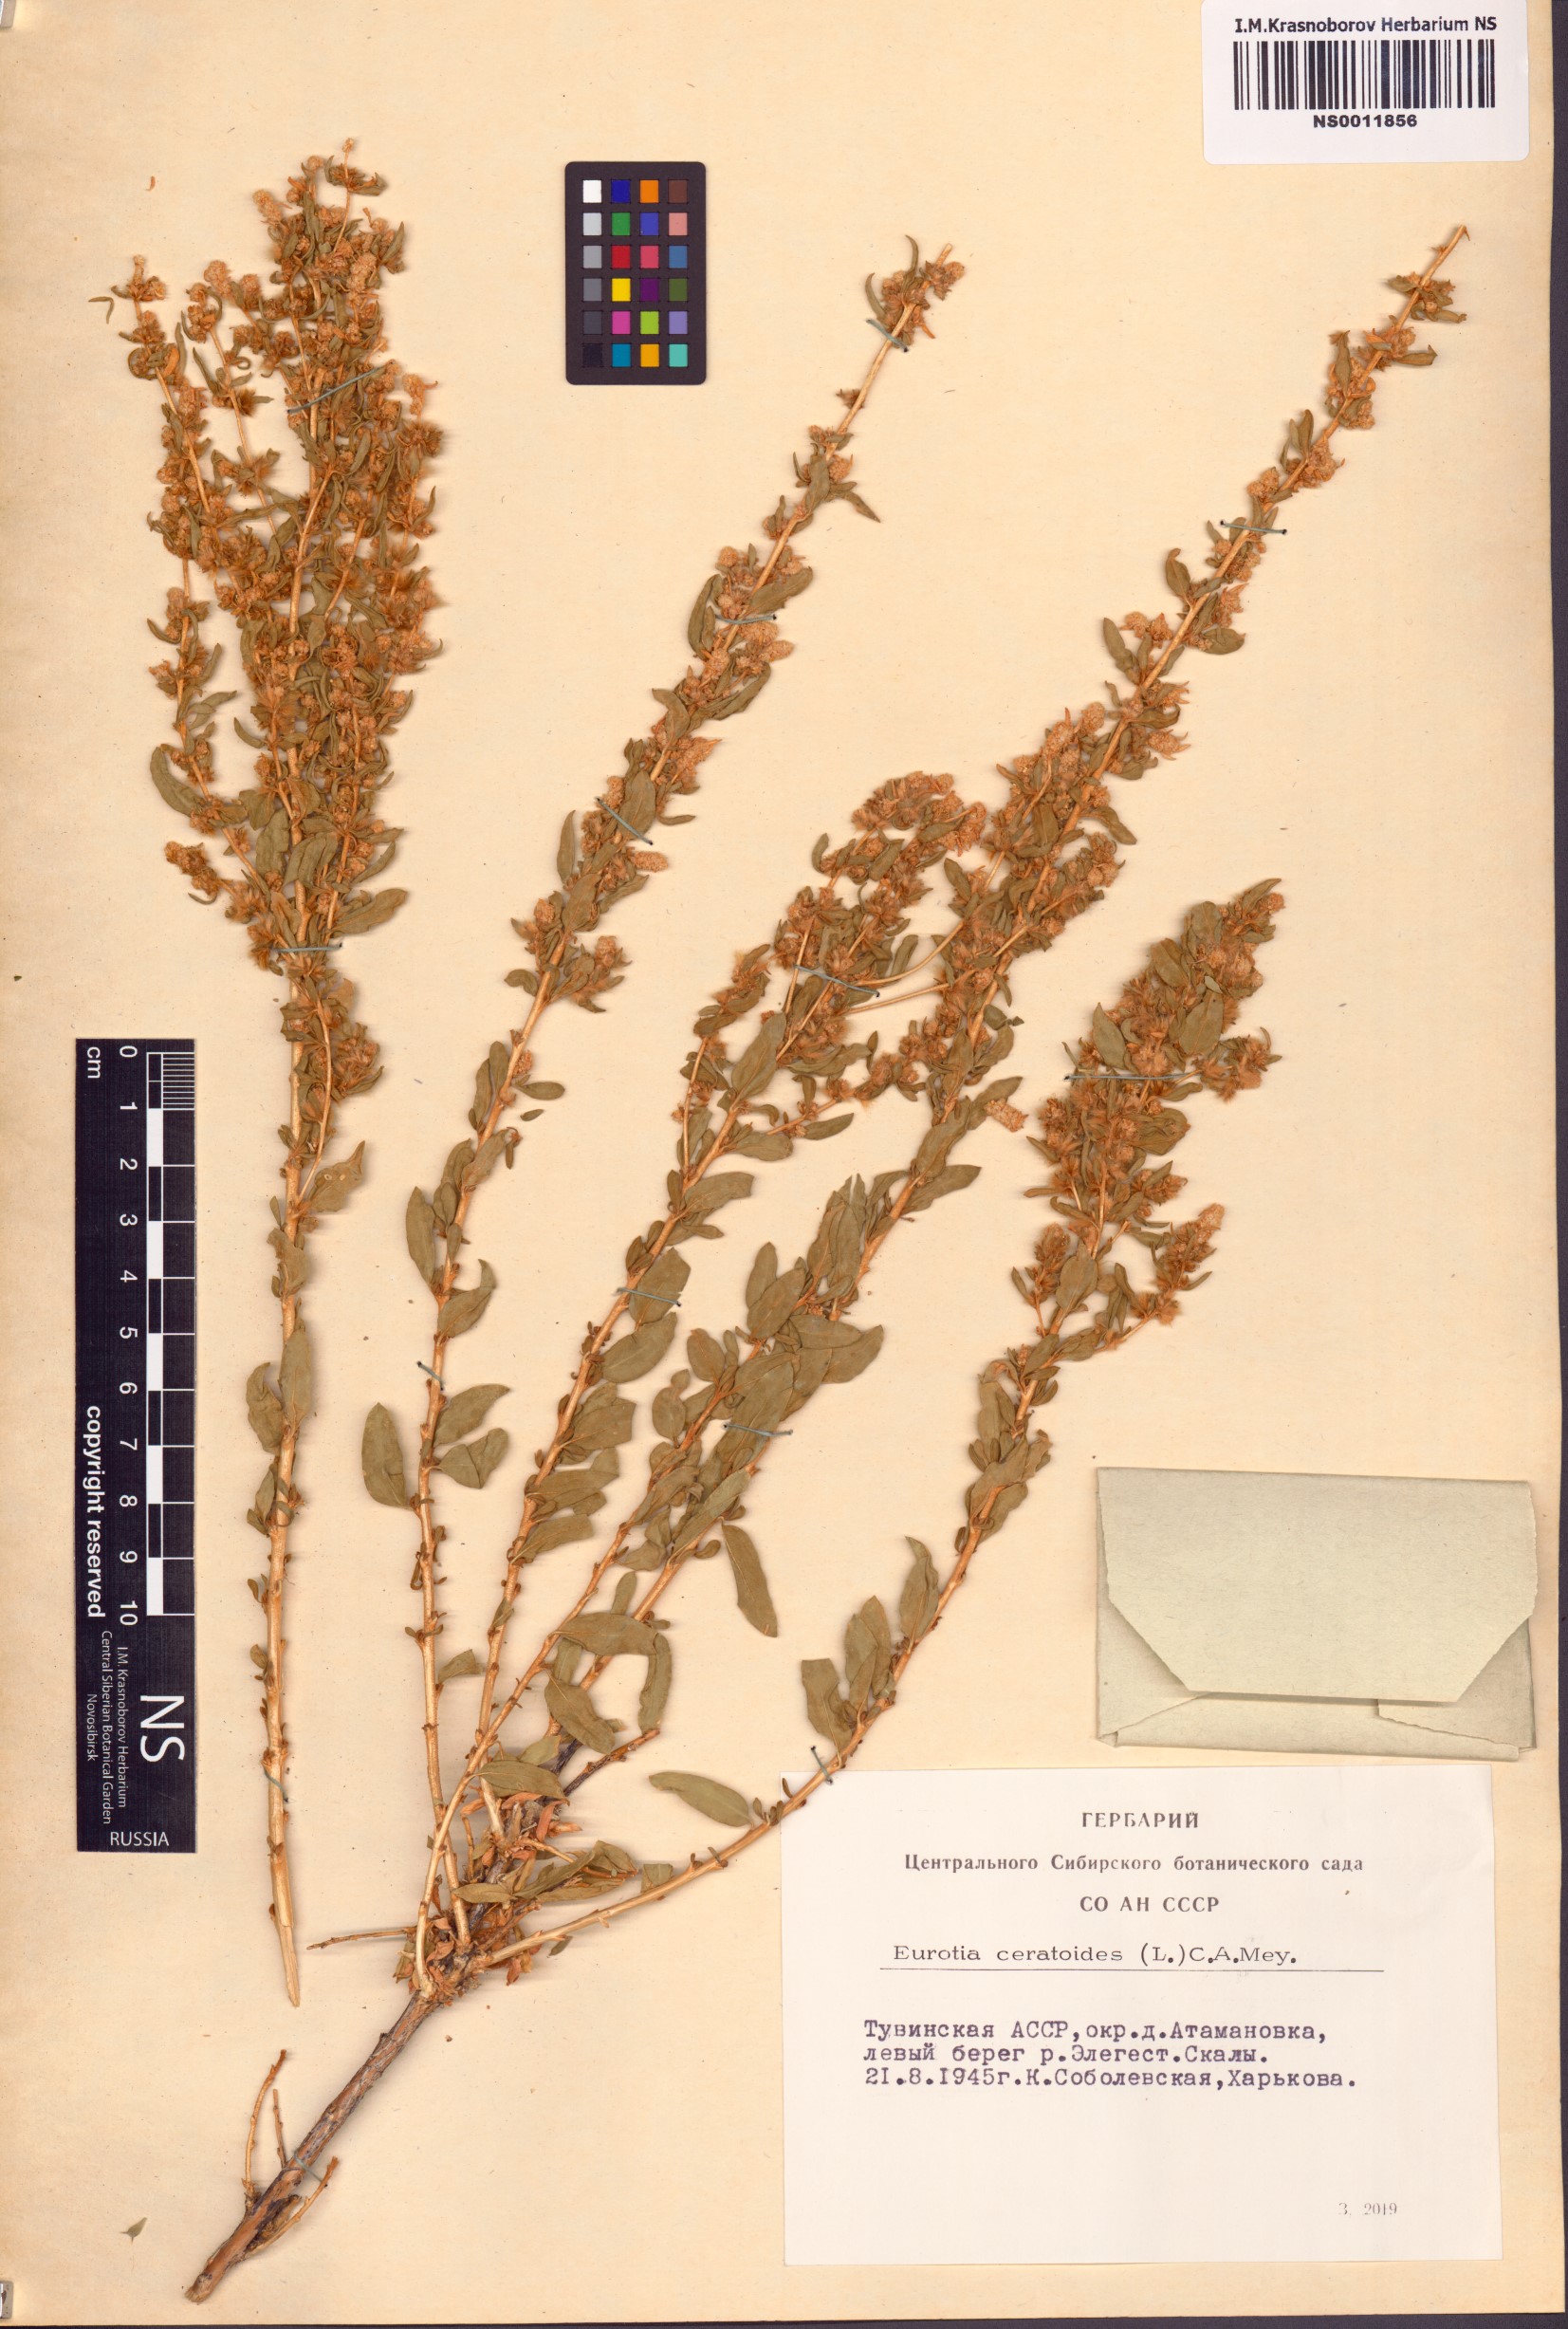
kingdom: Plantae
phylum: Tracheophyta
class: Magnoliopsida
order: Caryophyllales
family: Amaranthaceae
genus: Krascheninnikovia
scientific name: Krascheninnikovia ceratoides
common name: Pamirian winterfat
